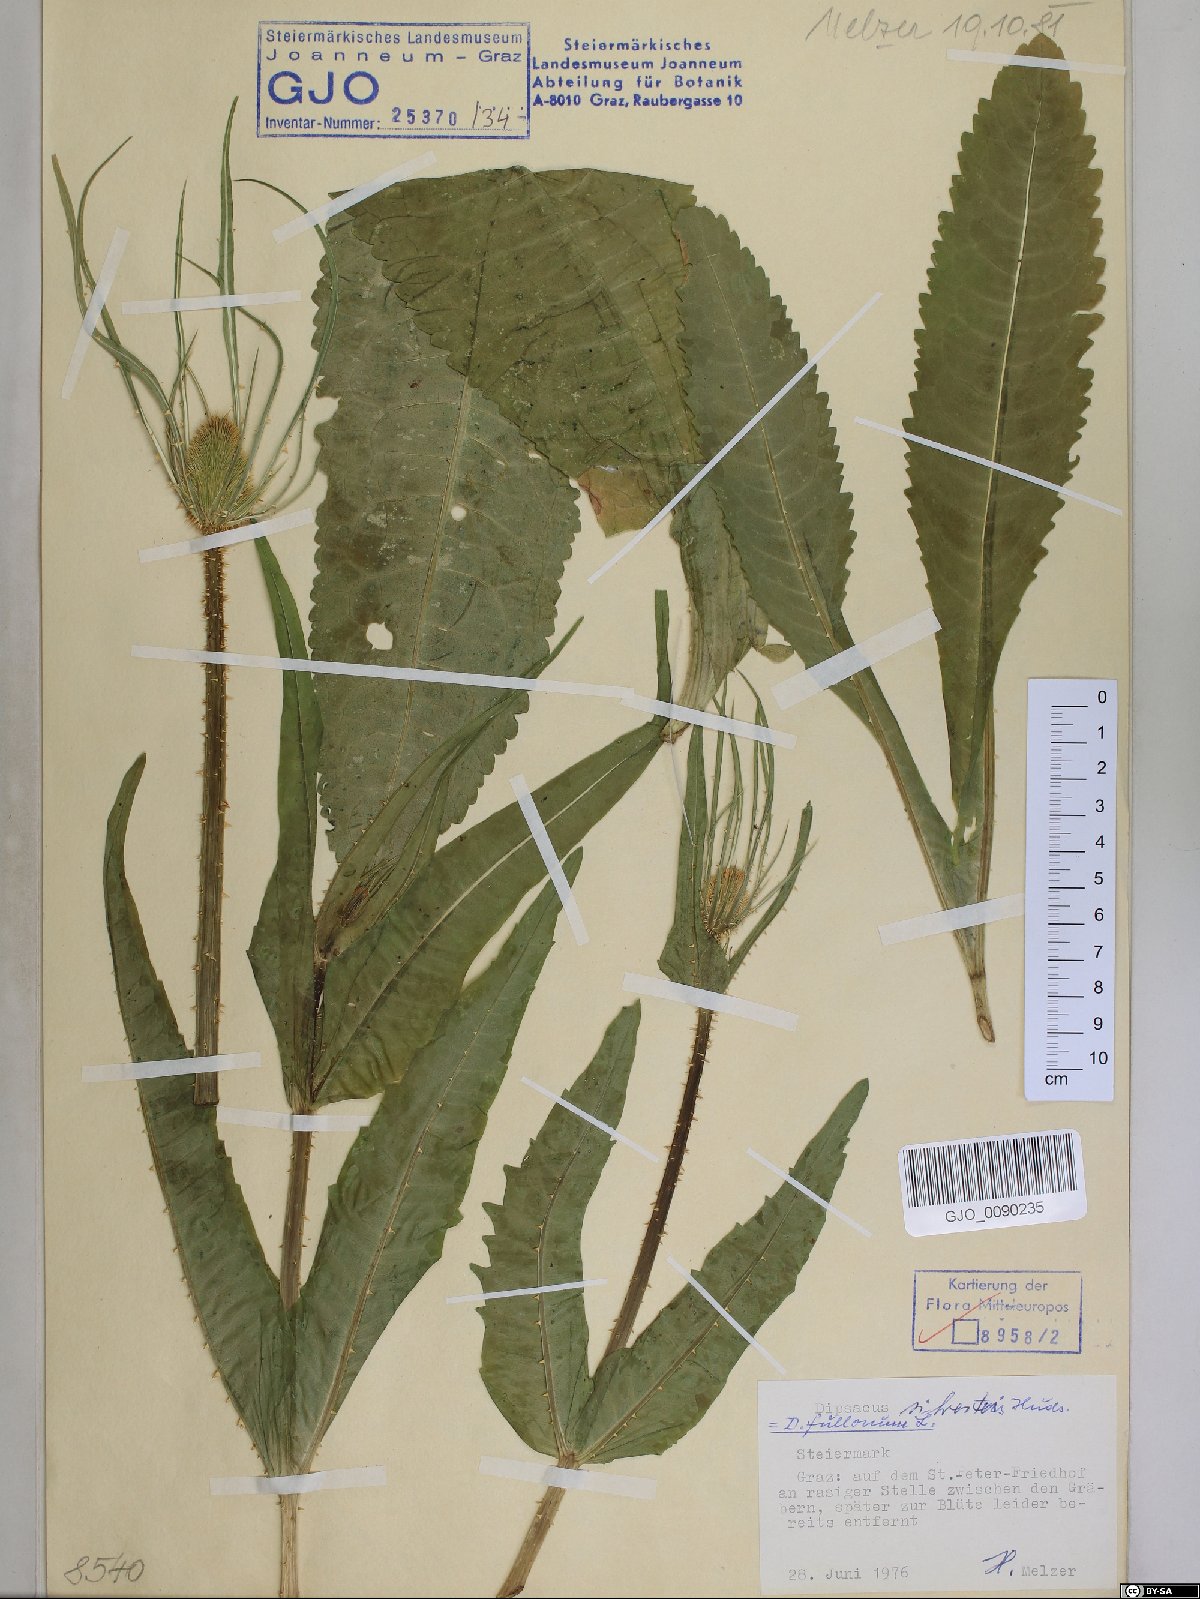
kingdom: Plantae
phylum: Tracheophyta
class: Magnoliopsida
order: Dipsacales
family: Caprifoliaceae
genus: Dipsacus
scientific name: Dipsacus fullonum
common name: Teasel
